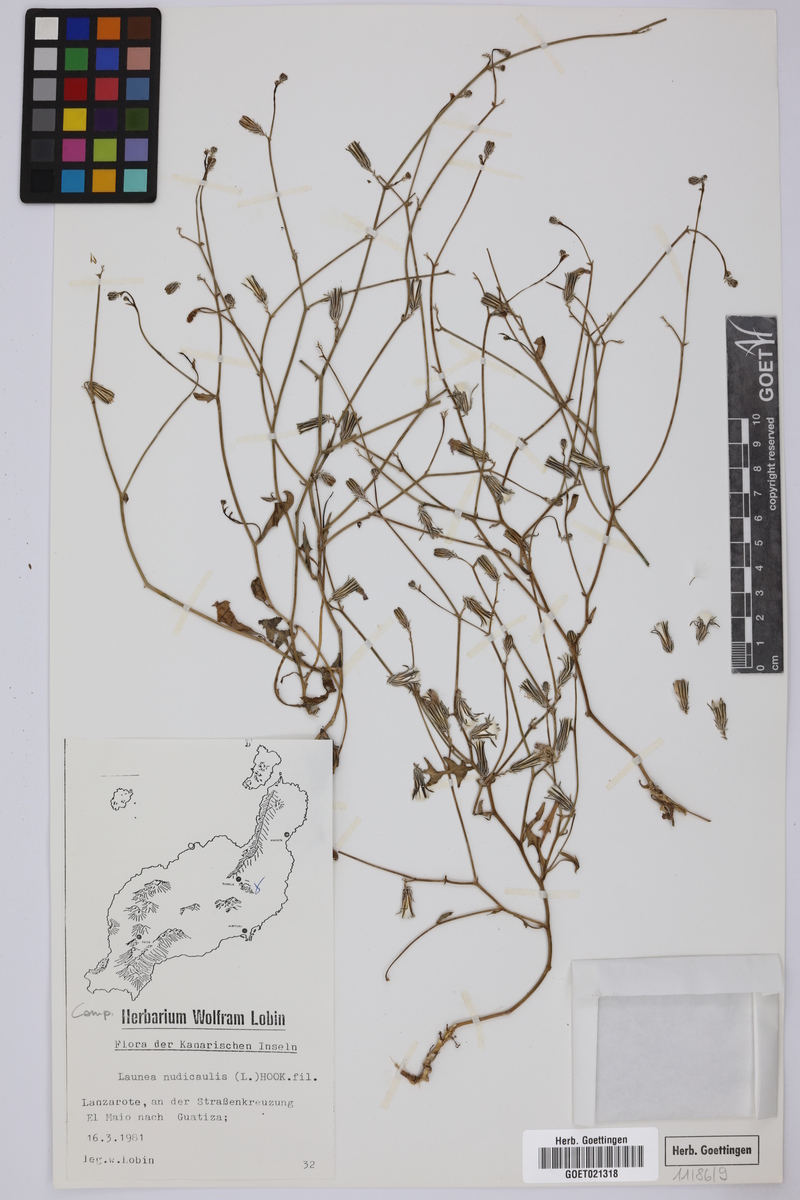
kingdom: Plantae
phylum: Tracheophyta
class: Magnoliopsida
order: Asterales
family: Asteraceae
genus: Launaea
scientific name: Launaea nudicaulis
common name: Naked launaea
